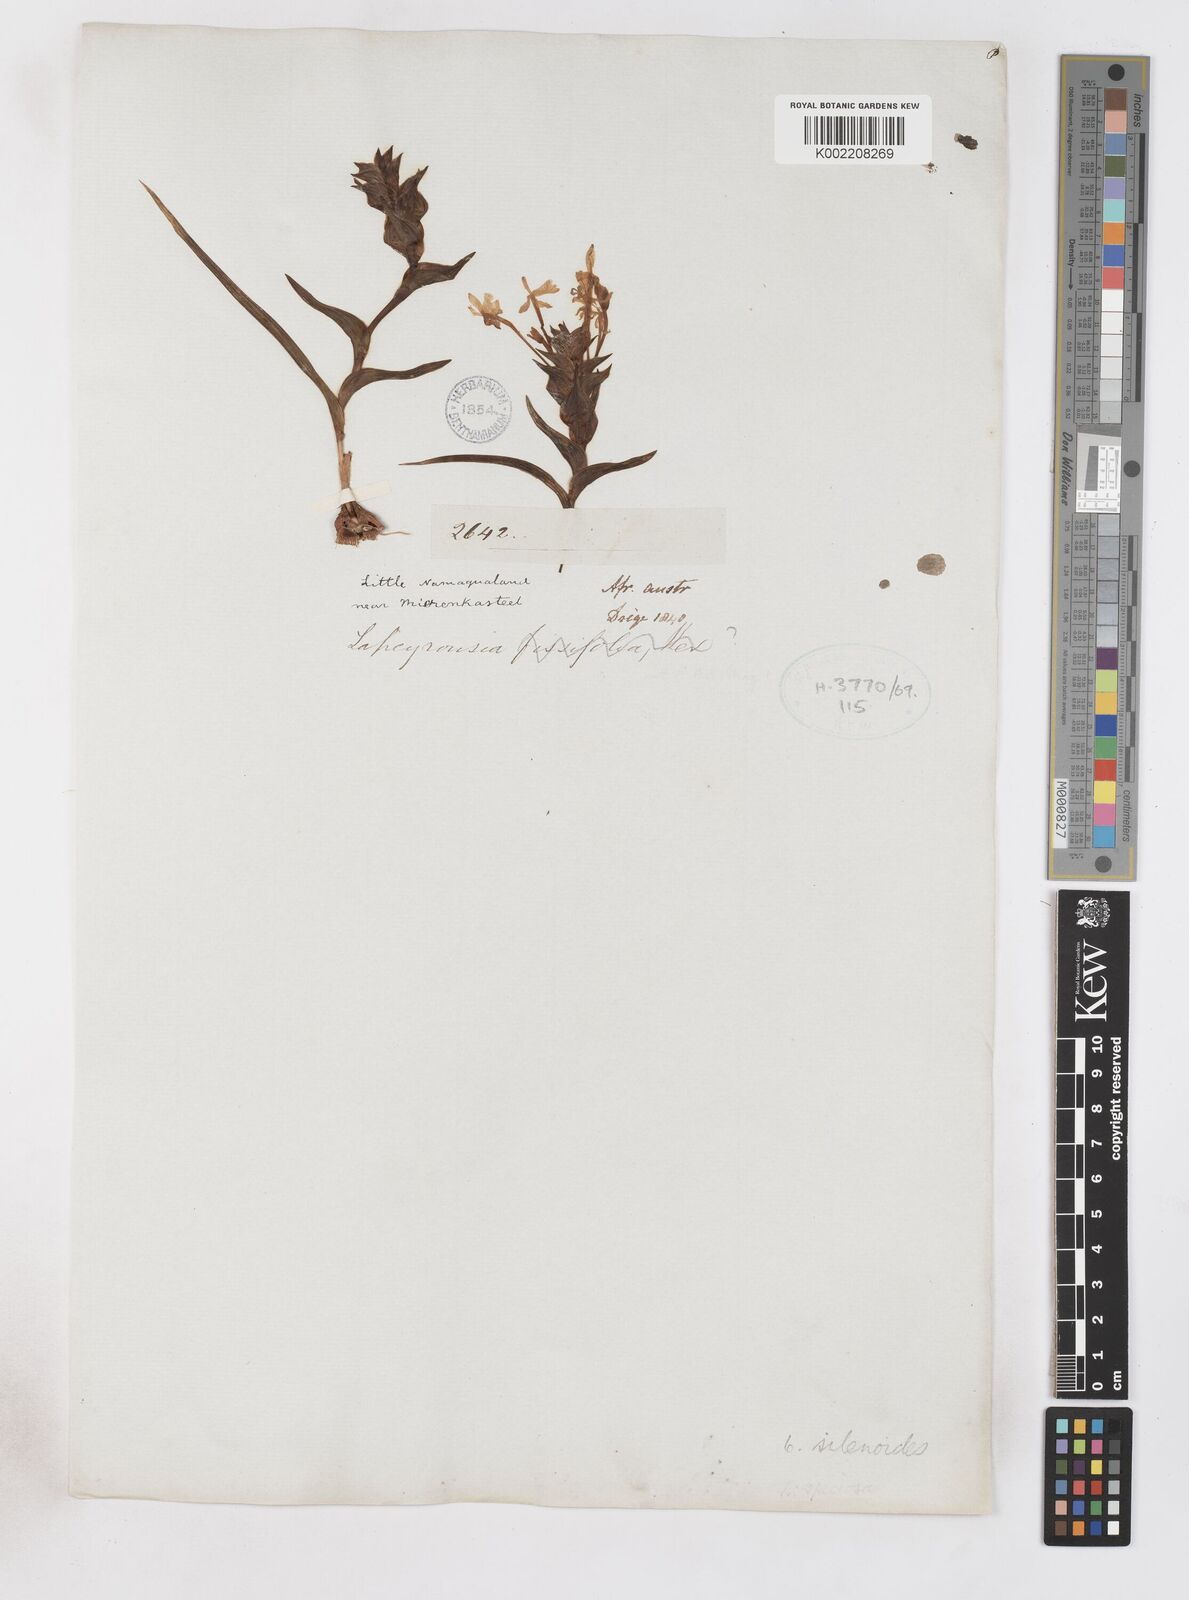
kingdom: Plantae
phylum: Tracheophyta
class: Liliopsida
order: Asparagales
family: Iridaceae
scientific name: Iridaceae
